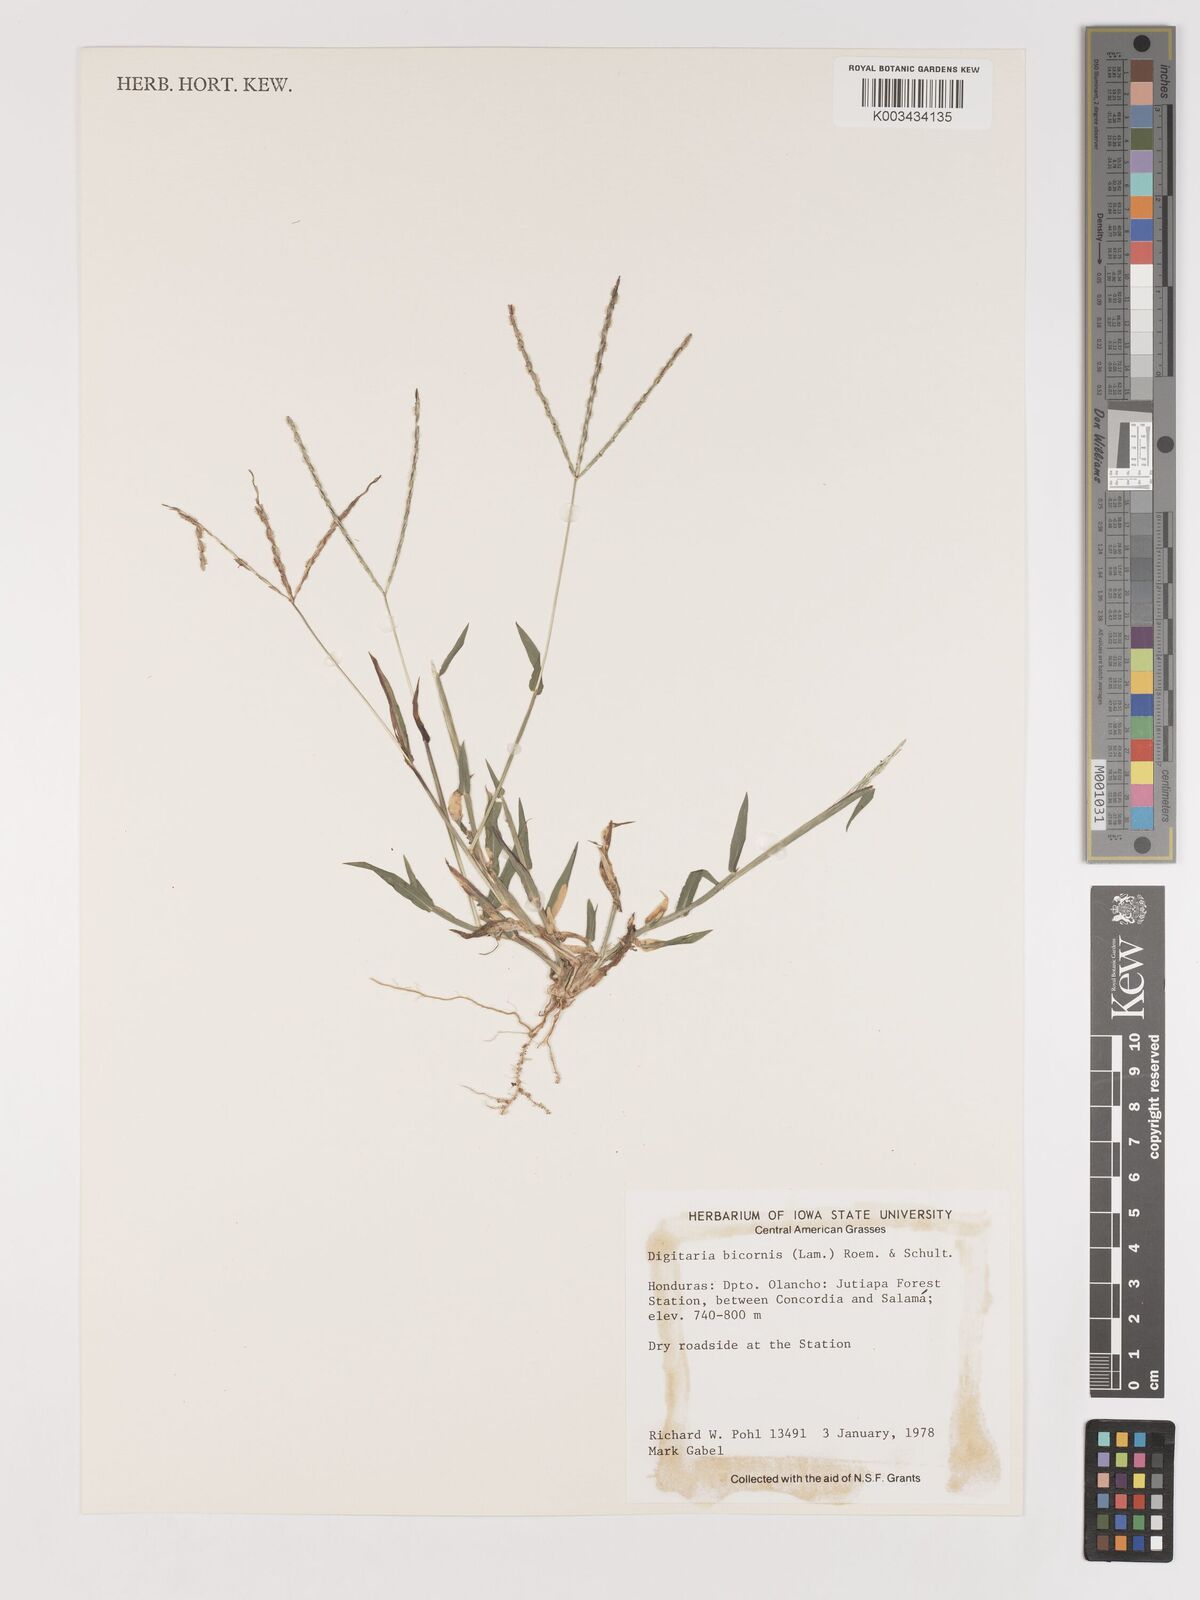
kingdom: Plantae
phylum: Tracheophyta
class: Liliopsida
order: Poales
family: Poaceae
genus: Digitaria
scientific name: Digitaria ciliaris
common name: Tropical finger-grass
